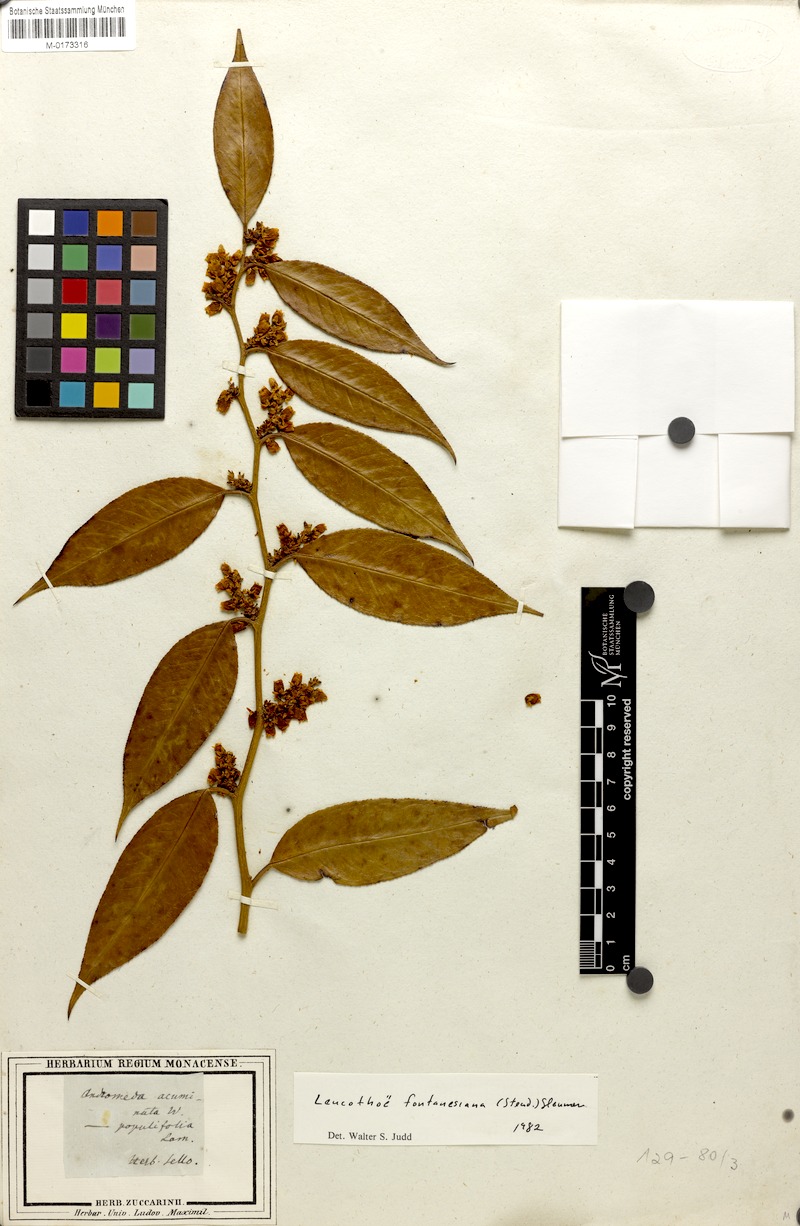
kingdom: Plantae
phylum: Tracheophyta
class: Magnoliopsida
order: Ericales
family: Ericaceae
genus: Leucothoe
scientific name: Leucothoe fontanesiana
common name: Fetterbush
